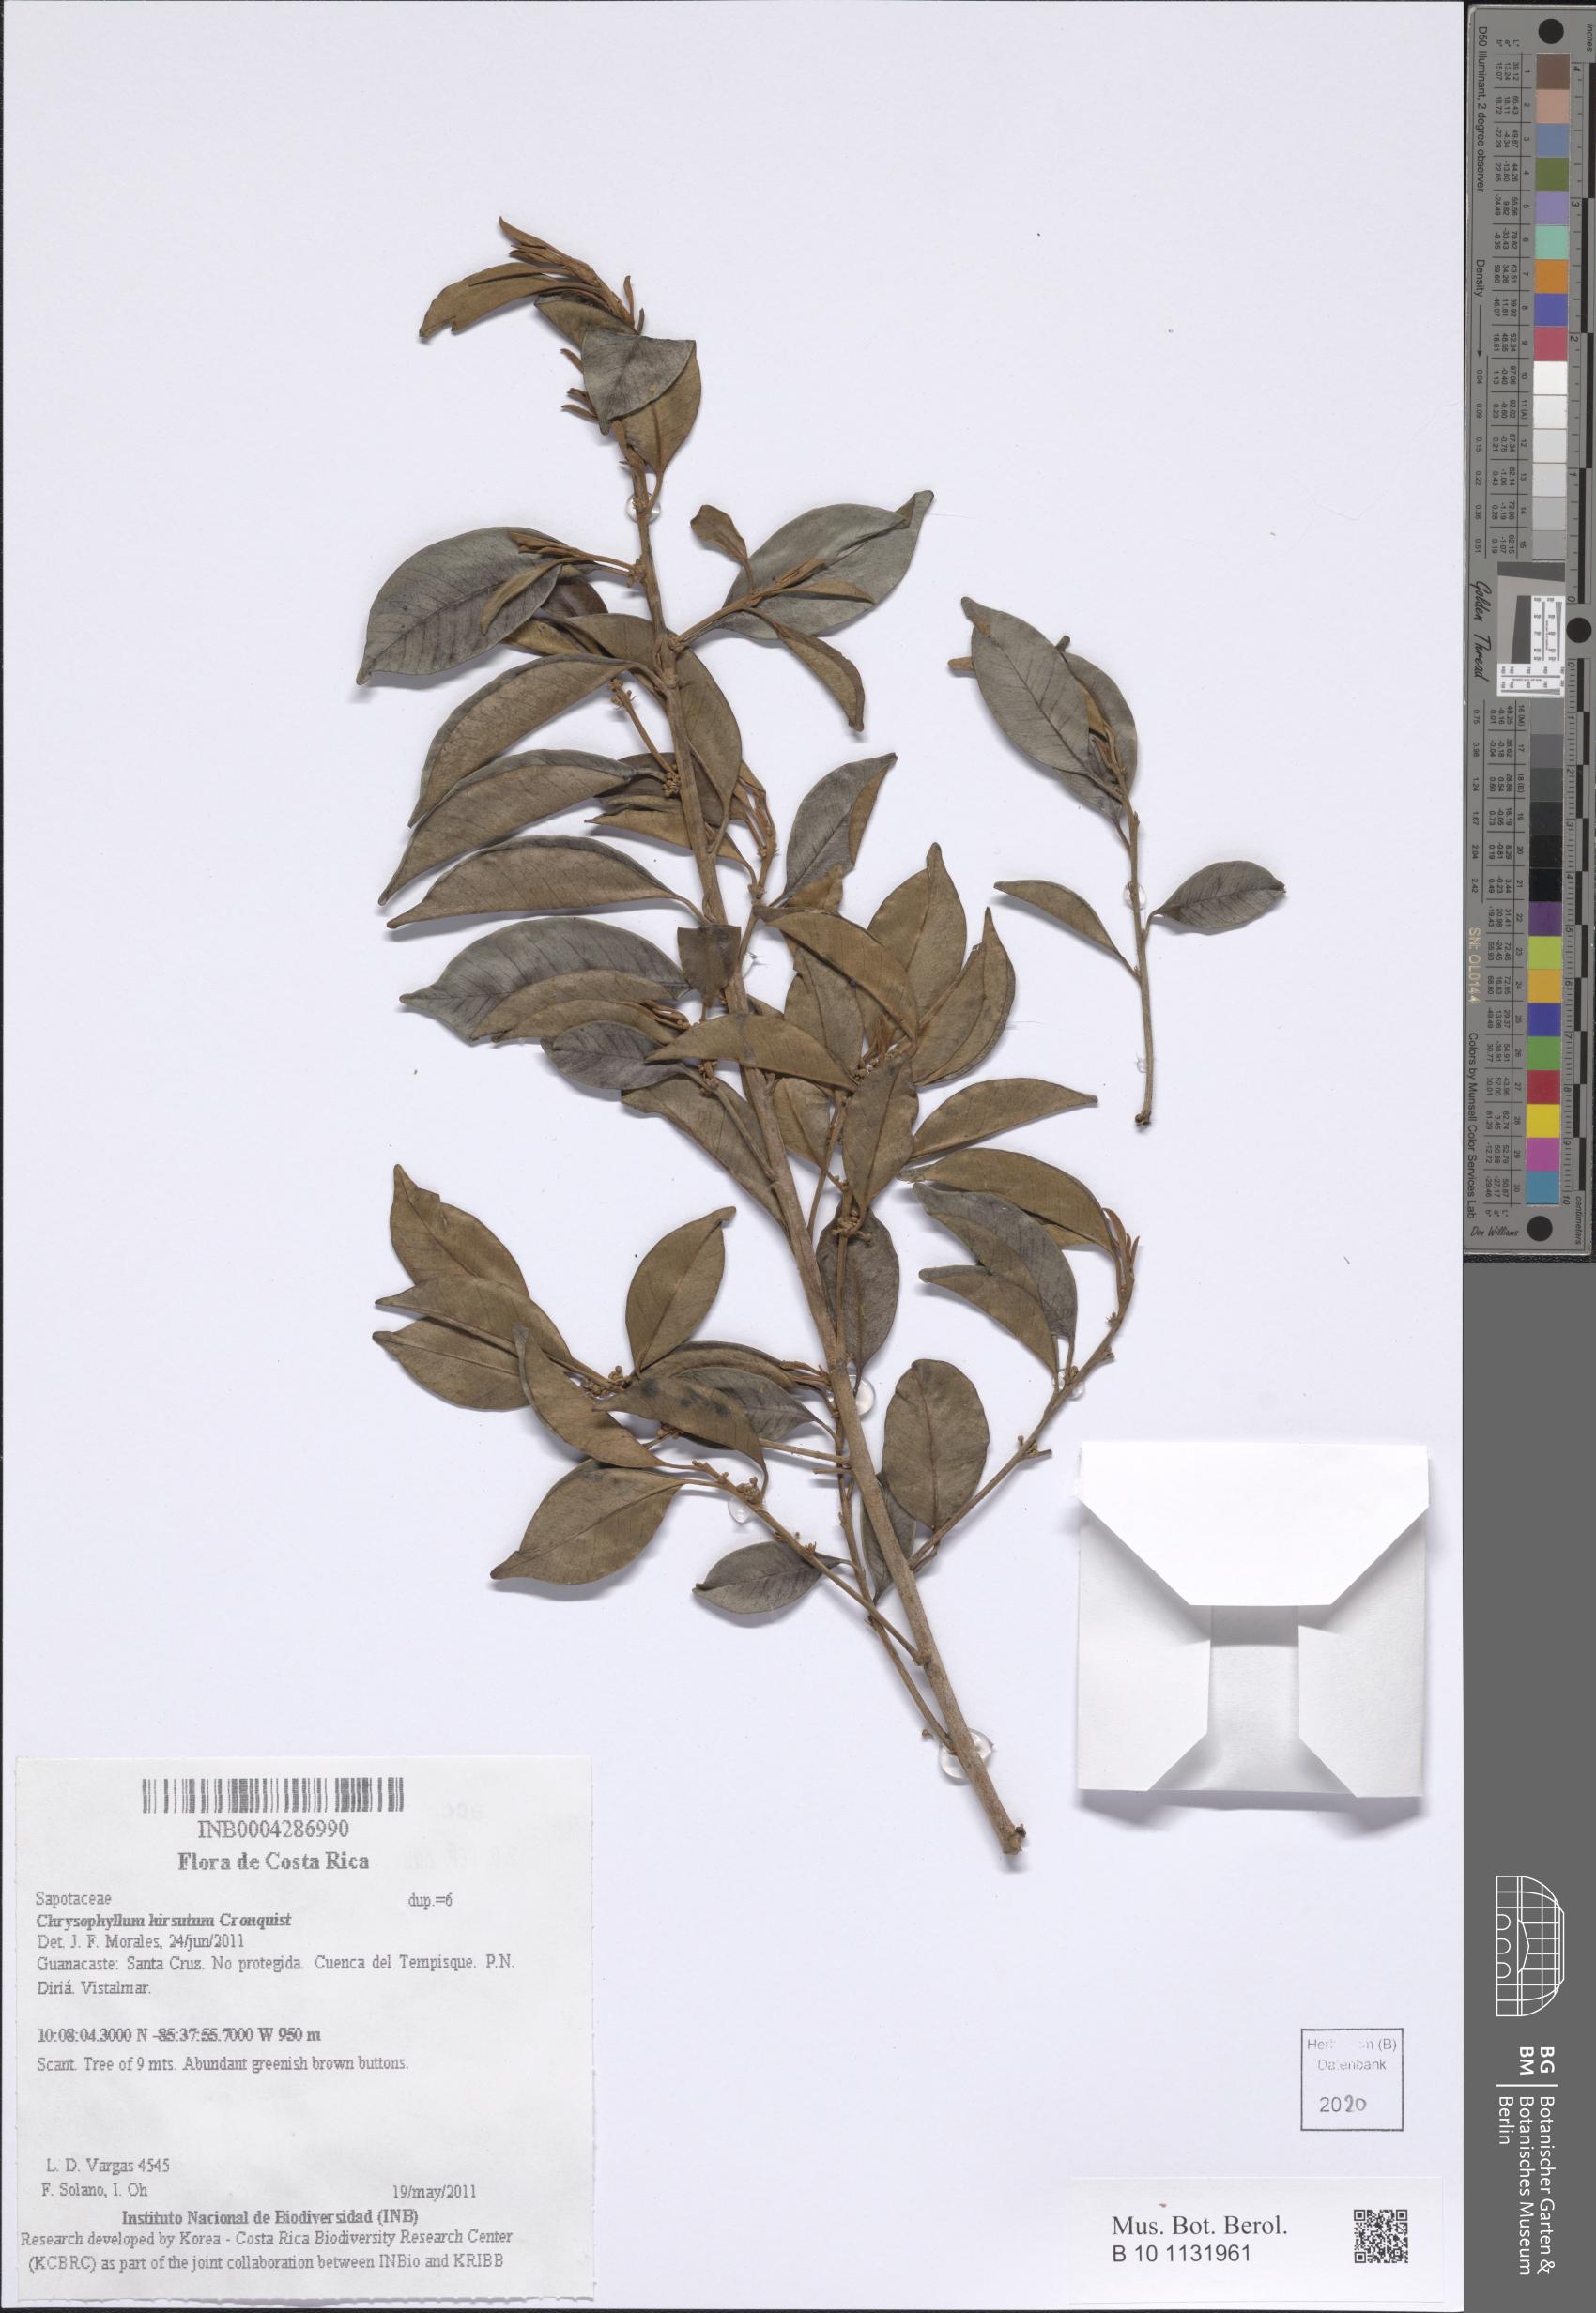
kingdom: Plantae
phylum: Tracheophyta
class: Magnoliopsida
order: Ericales
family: Sapotaceae
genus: Chrysophyllum
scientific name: Chrysophyllum hirsutum
